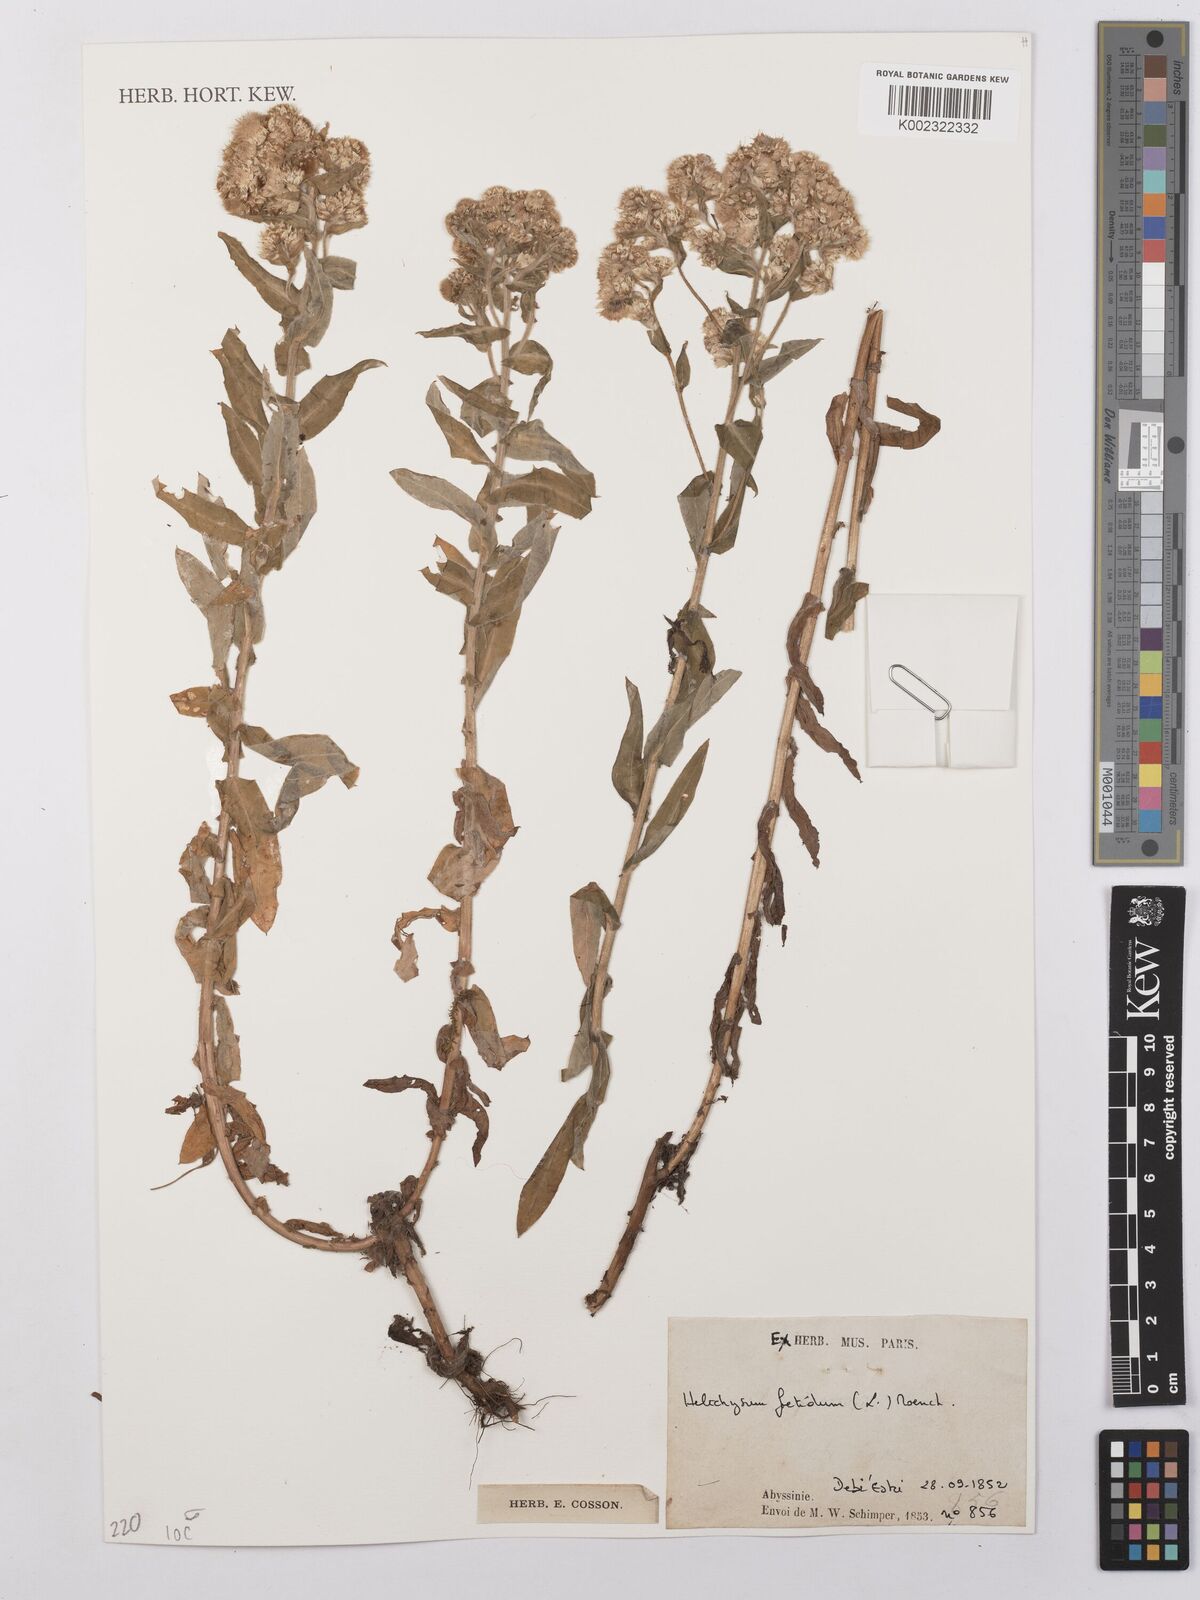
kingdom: Plantae
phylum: Tracheophyta
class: Magnoliopsida
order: Asterales
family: Asteraceae
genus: Helichrysum
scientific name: Helichrysum foetidum
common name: Stinking everlasting
